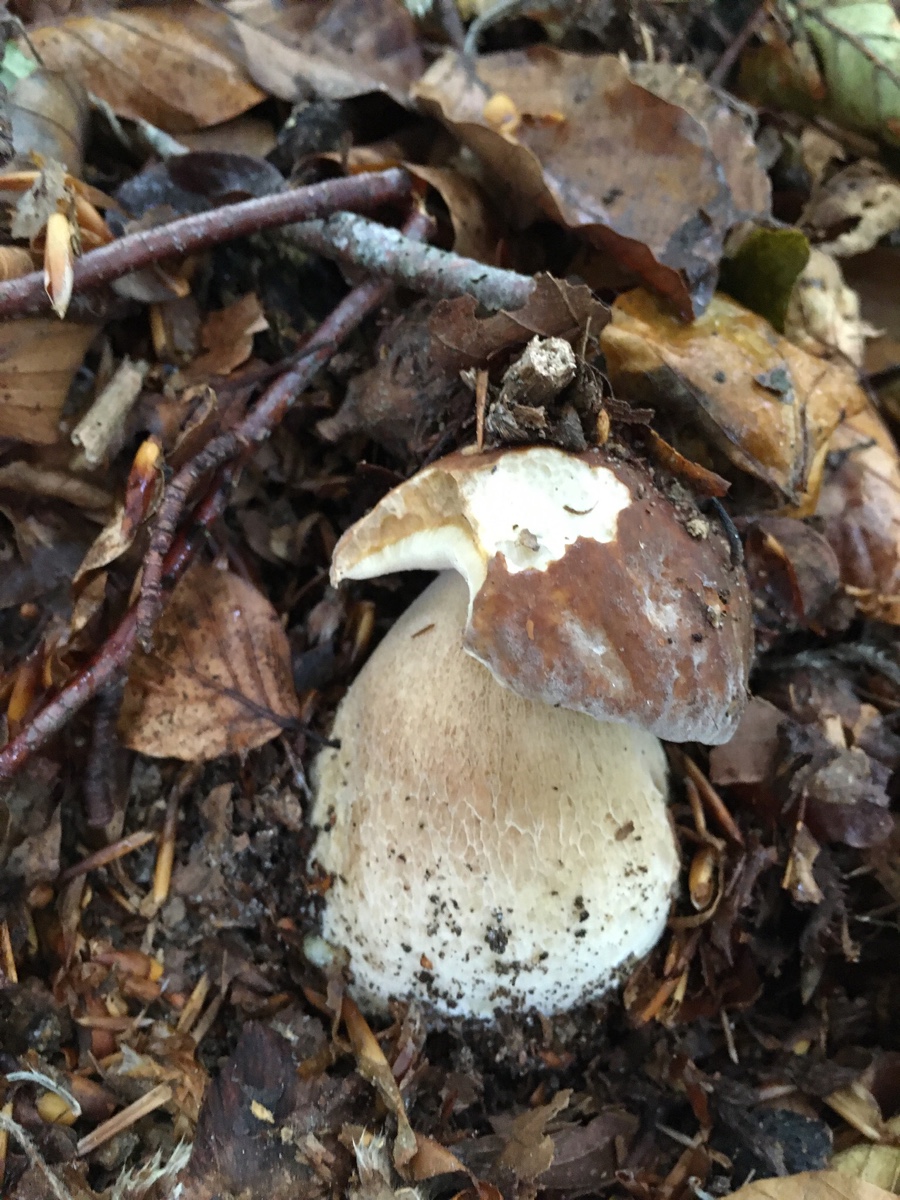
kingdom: Fungi
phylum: Basidiomycota
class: Agaricomycetes
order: Boletales
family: Boletaceae
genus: Boletus
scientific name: Boletus reticulatus
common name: sommer-rørhat
